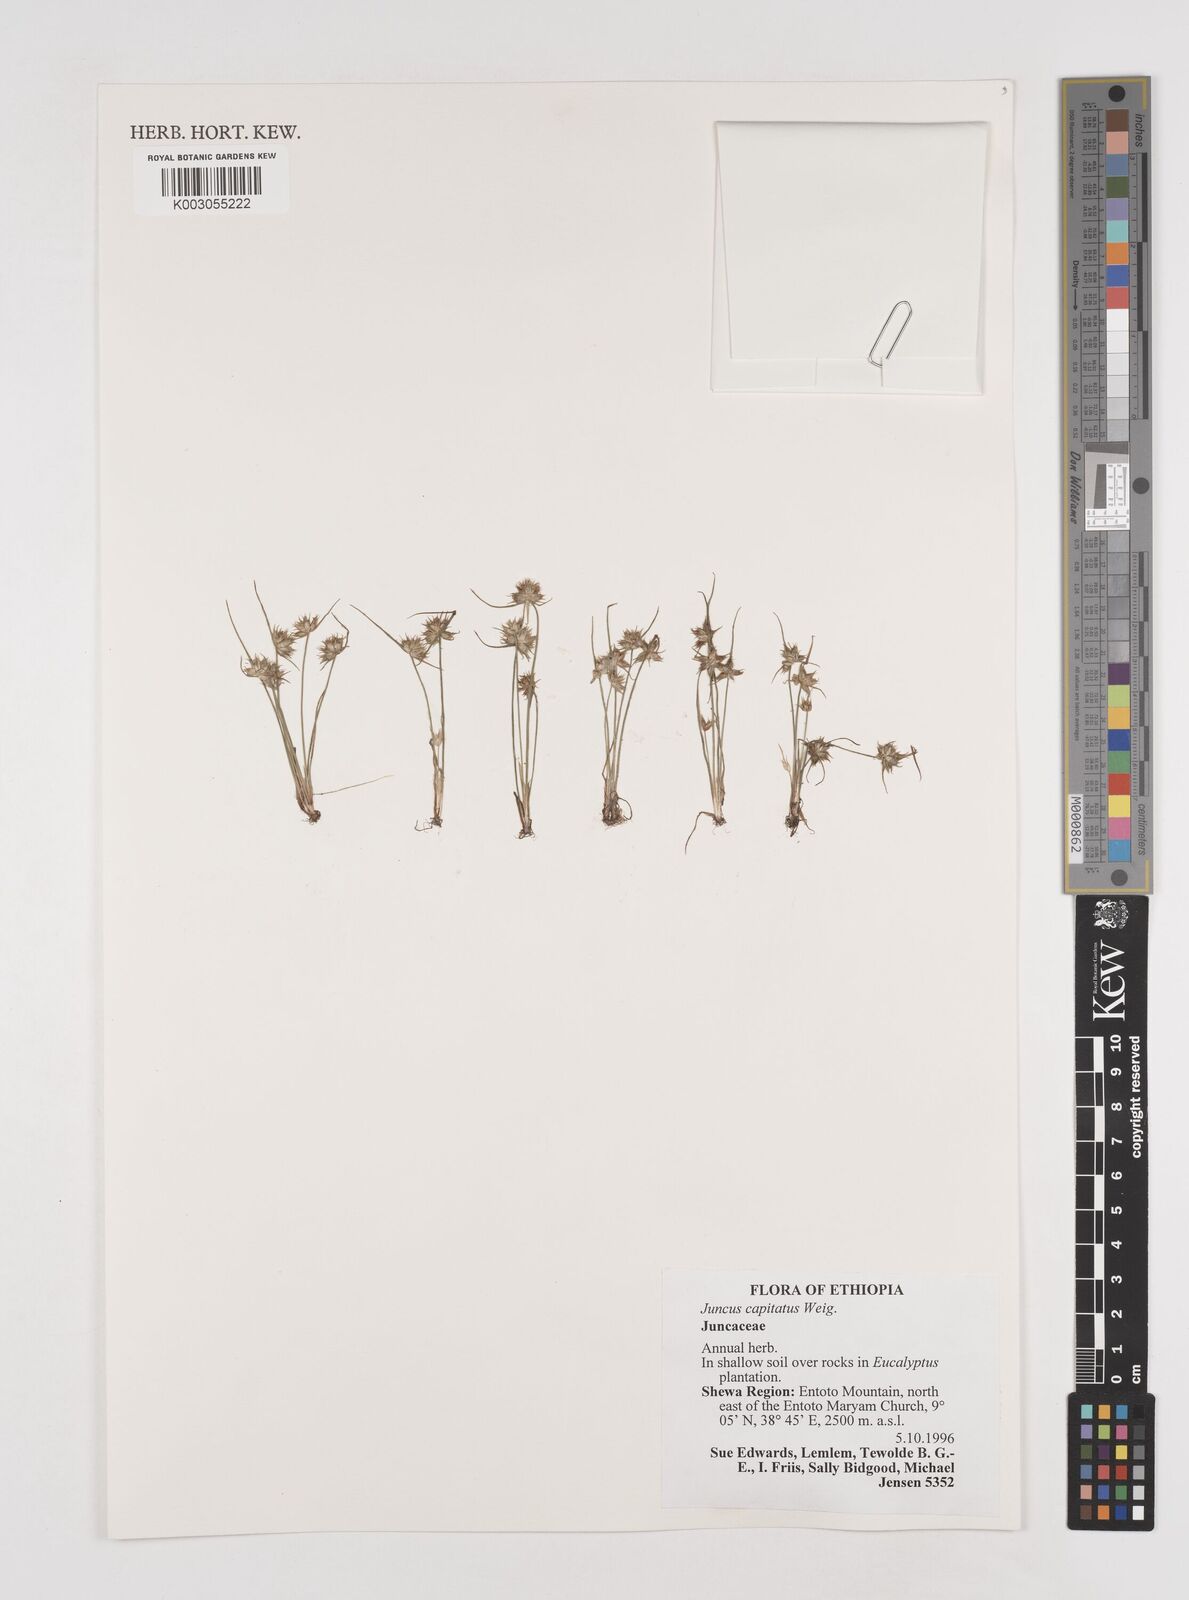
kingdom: Plantae
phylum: Tracheophyta
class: Liliopsida
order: Poales
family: Juncaceae
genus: Juncus
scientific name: Juncus capitatus
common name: Dwarf rush
